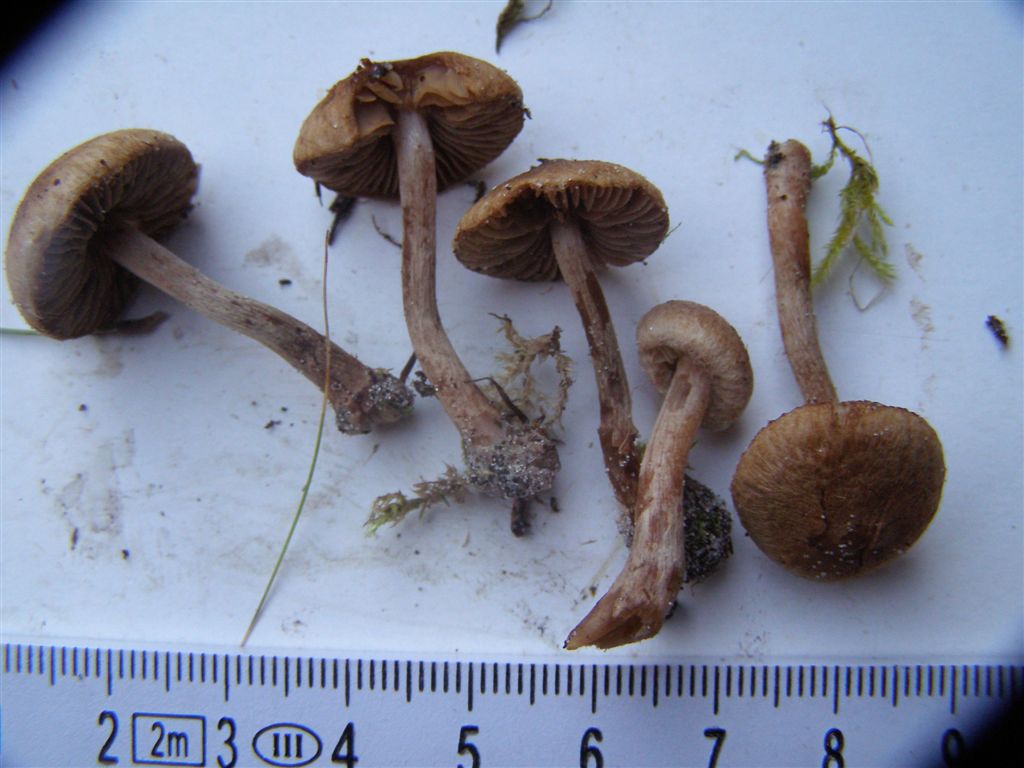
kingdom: Fungi
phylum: Basidiomycota
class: Agaricomycetes
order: Agaricales
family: Inocybaceae
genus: Inocybe
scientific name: Inocybe impexa
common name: hygrofan trævlhat
